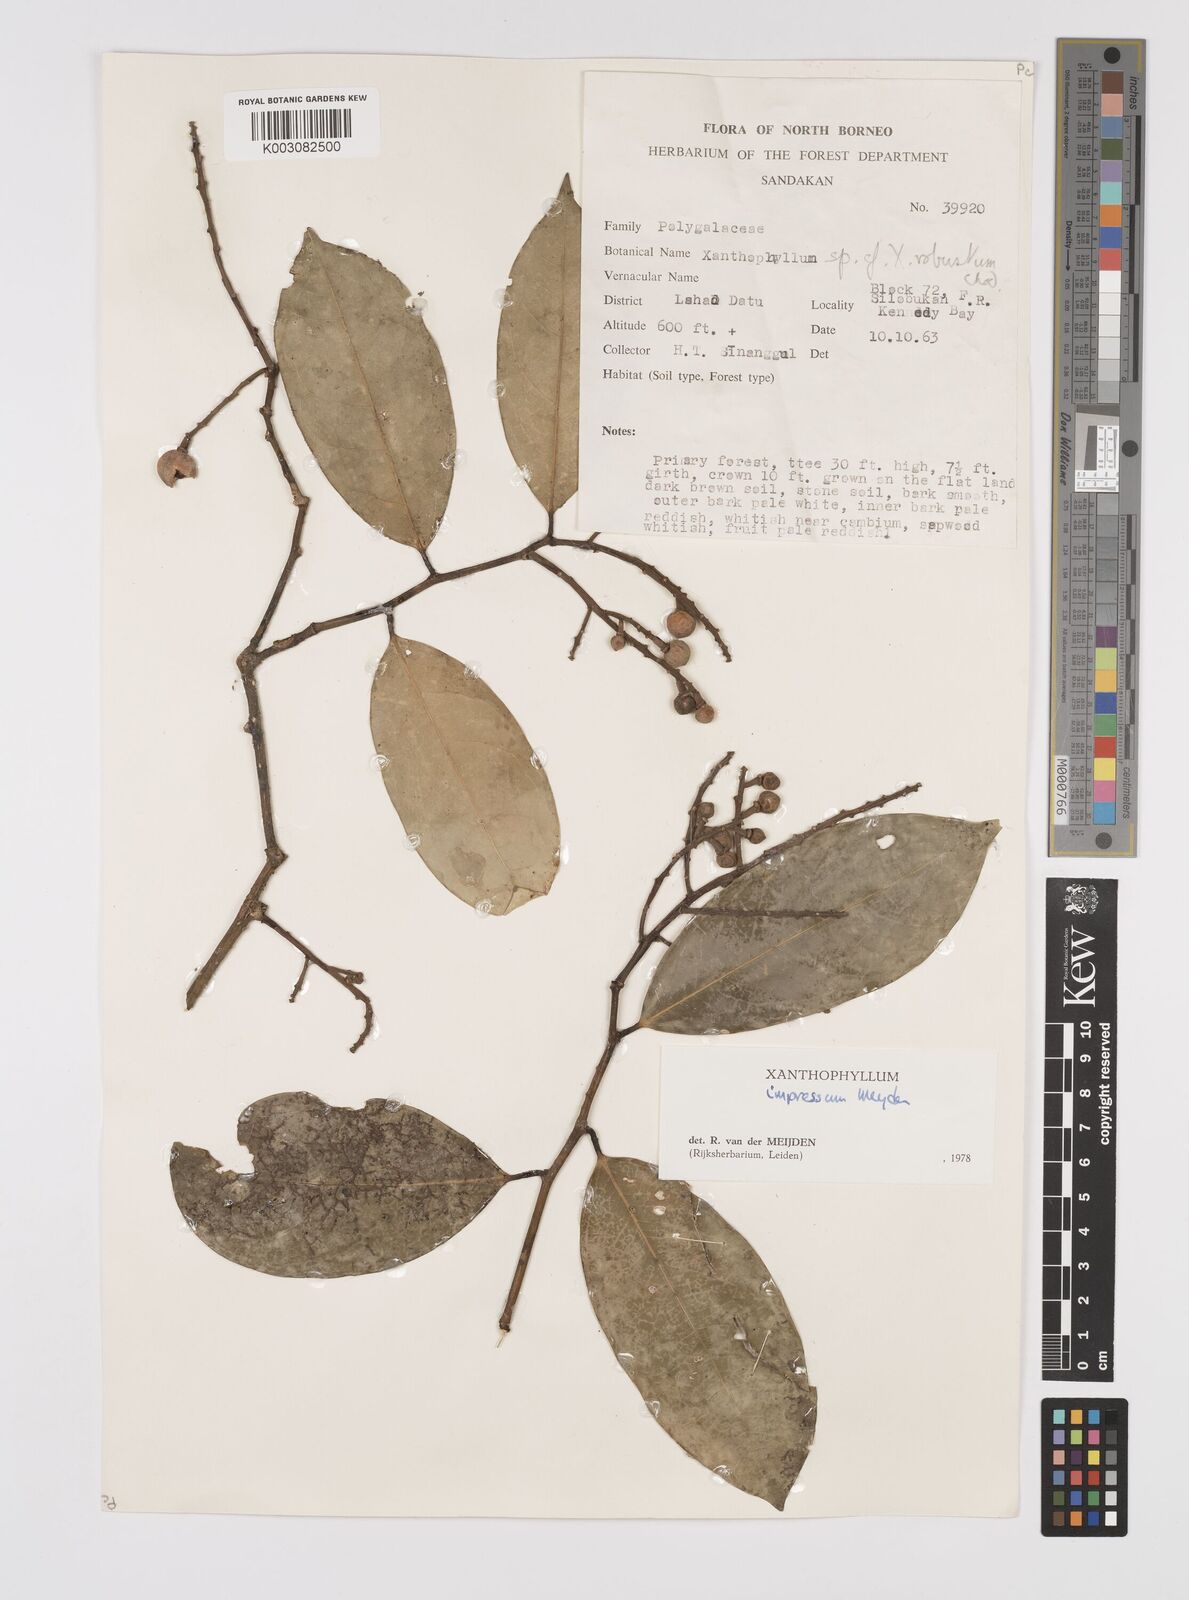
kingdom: Plantae
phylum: Tracheophyta
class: Magnoliopsida
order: Fabales
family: Polygalaceae
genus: Xanthophyllum
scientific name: Xanthophyllum impressum
